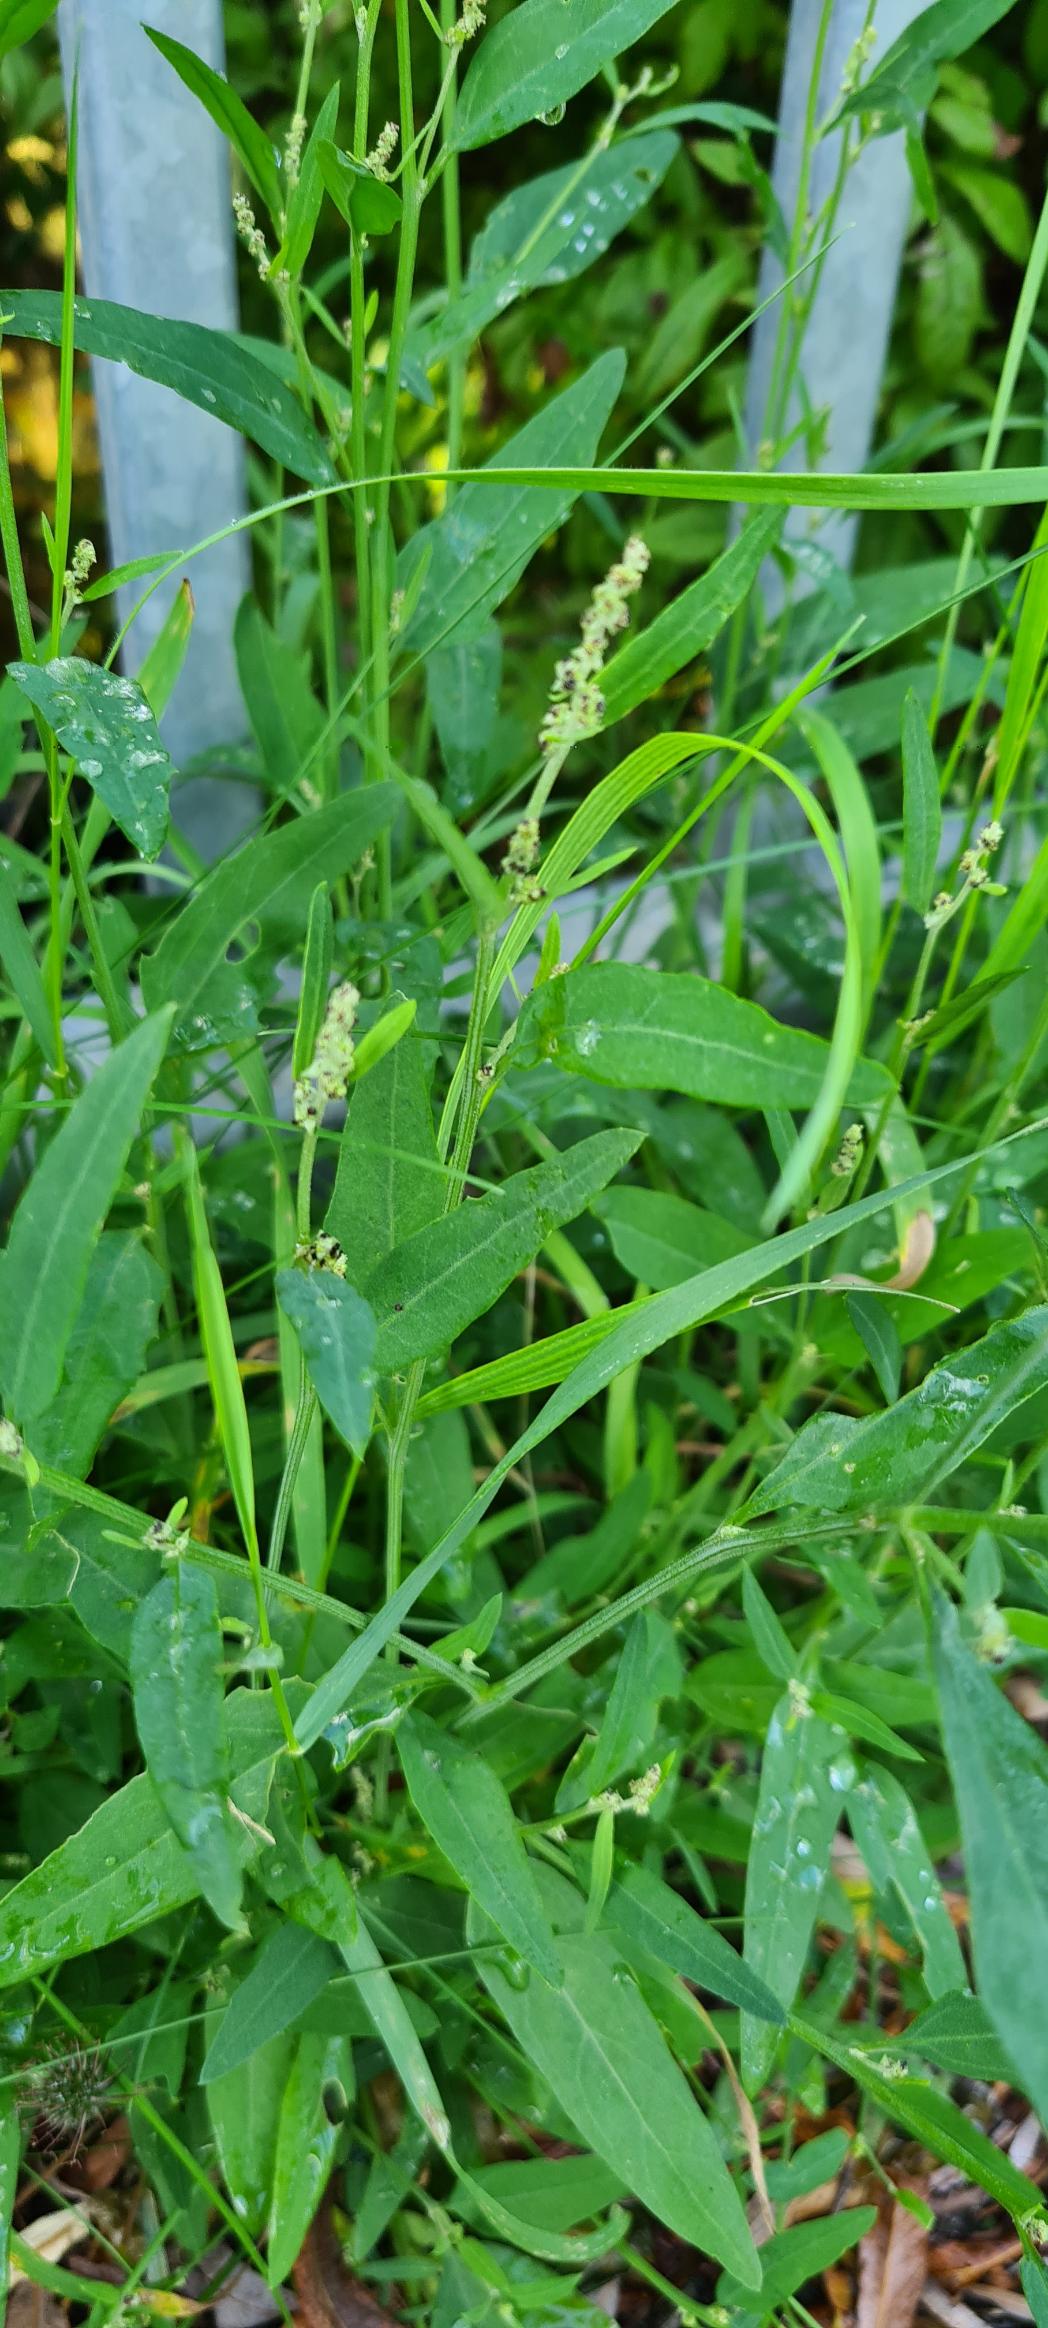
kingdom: Plantae
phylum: Tracheophyta
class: Magnoliopsida
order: Caryophyllales
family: Amaranthaceae
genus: Atriplex
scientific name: Atriplex patula
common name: Svine-mælde
